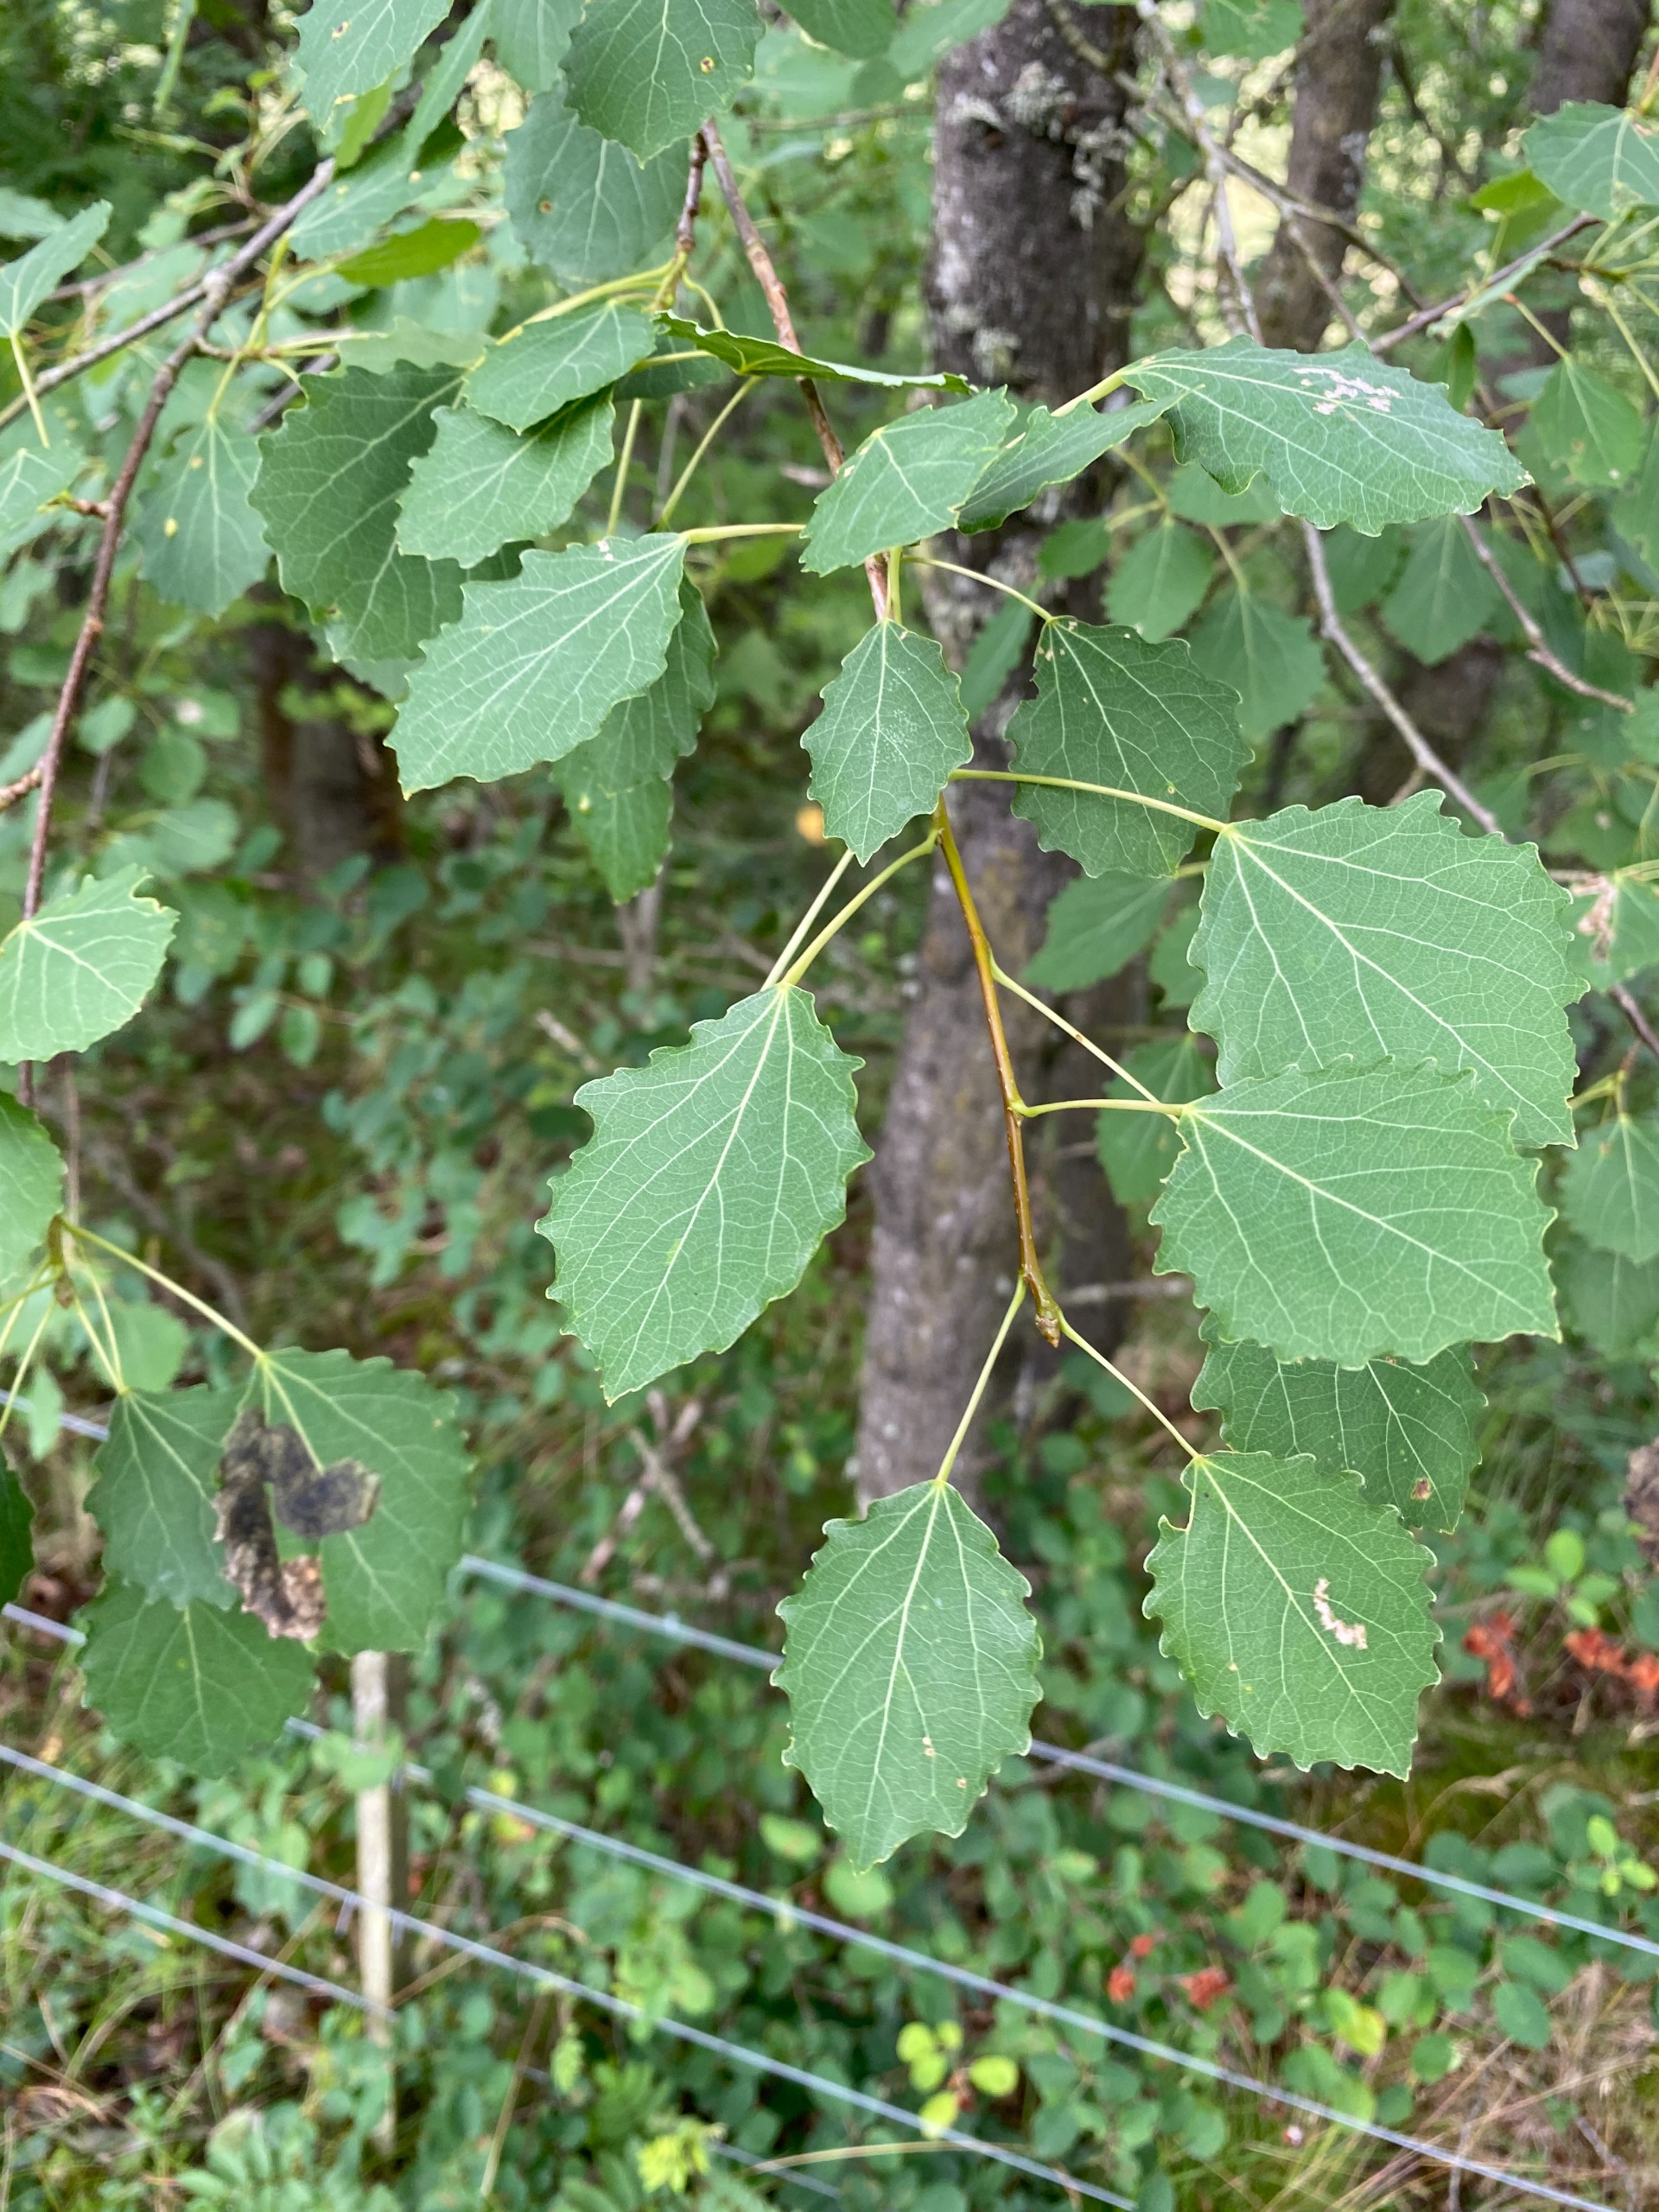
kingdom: Plantae
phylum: Tracheophyta
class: Magnoliopsida
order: Malpighiales
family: Salicaceae
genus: Populus
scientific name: Populus tremula
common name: Bævreasp
